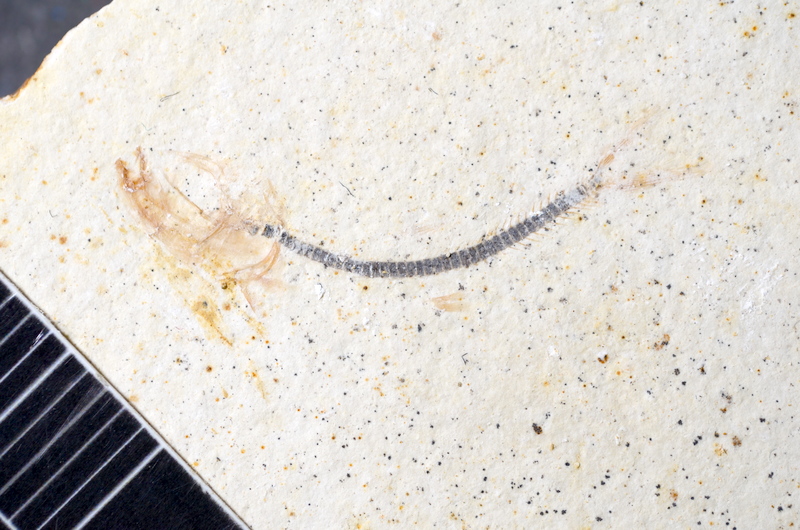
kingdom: Animalia
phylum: Chordata
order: Salmoniformes
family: Orthogonikleithridae
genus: Orthogonikleithrus
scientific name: Orthogonikleithrus hoelli
